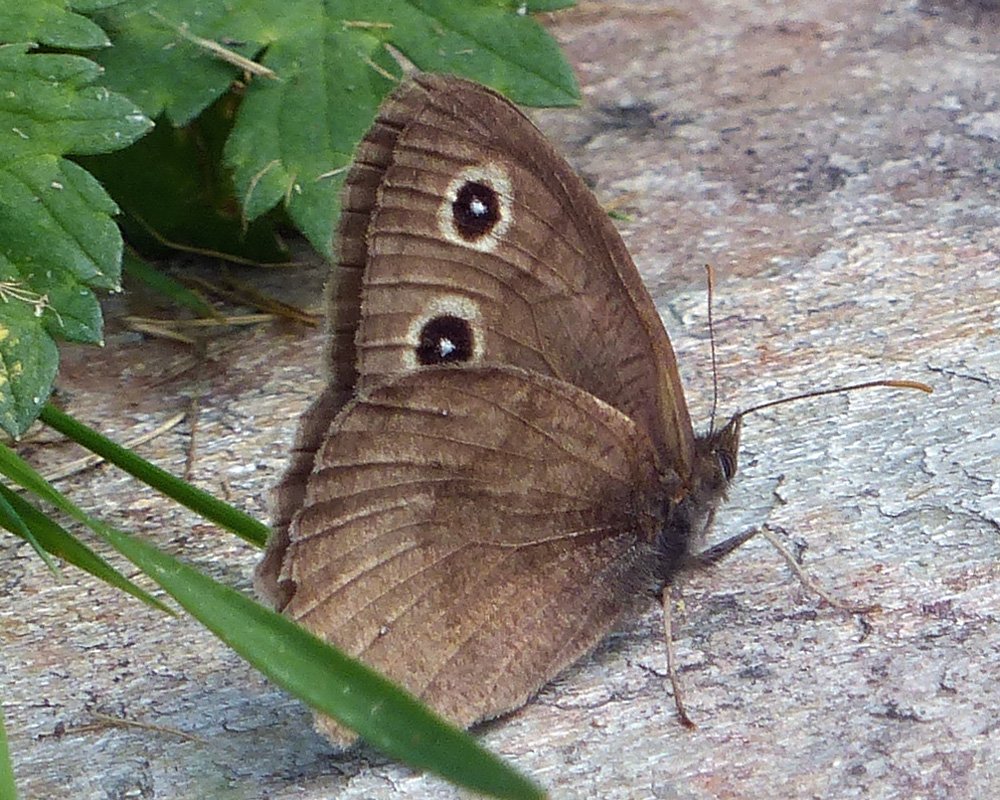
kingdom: Animalia
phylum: Arthropoda
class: Insecta
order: Lepidoptera
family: Nymphalidae
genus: Cercyonis
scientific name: Cercyonis pegala
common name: Common Wood-Nymph
